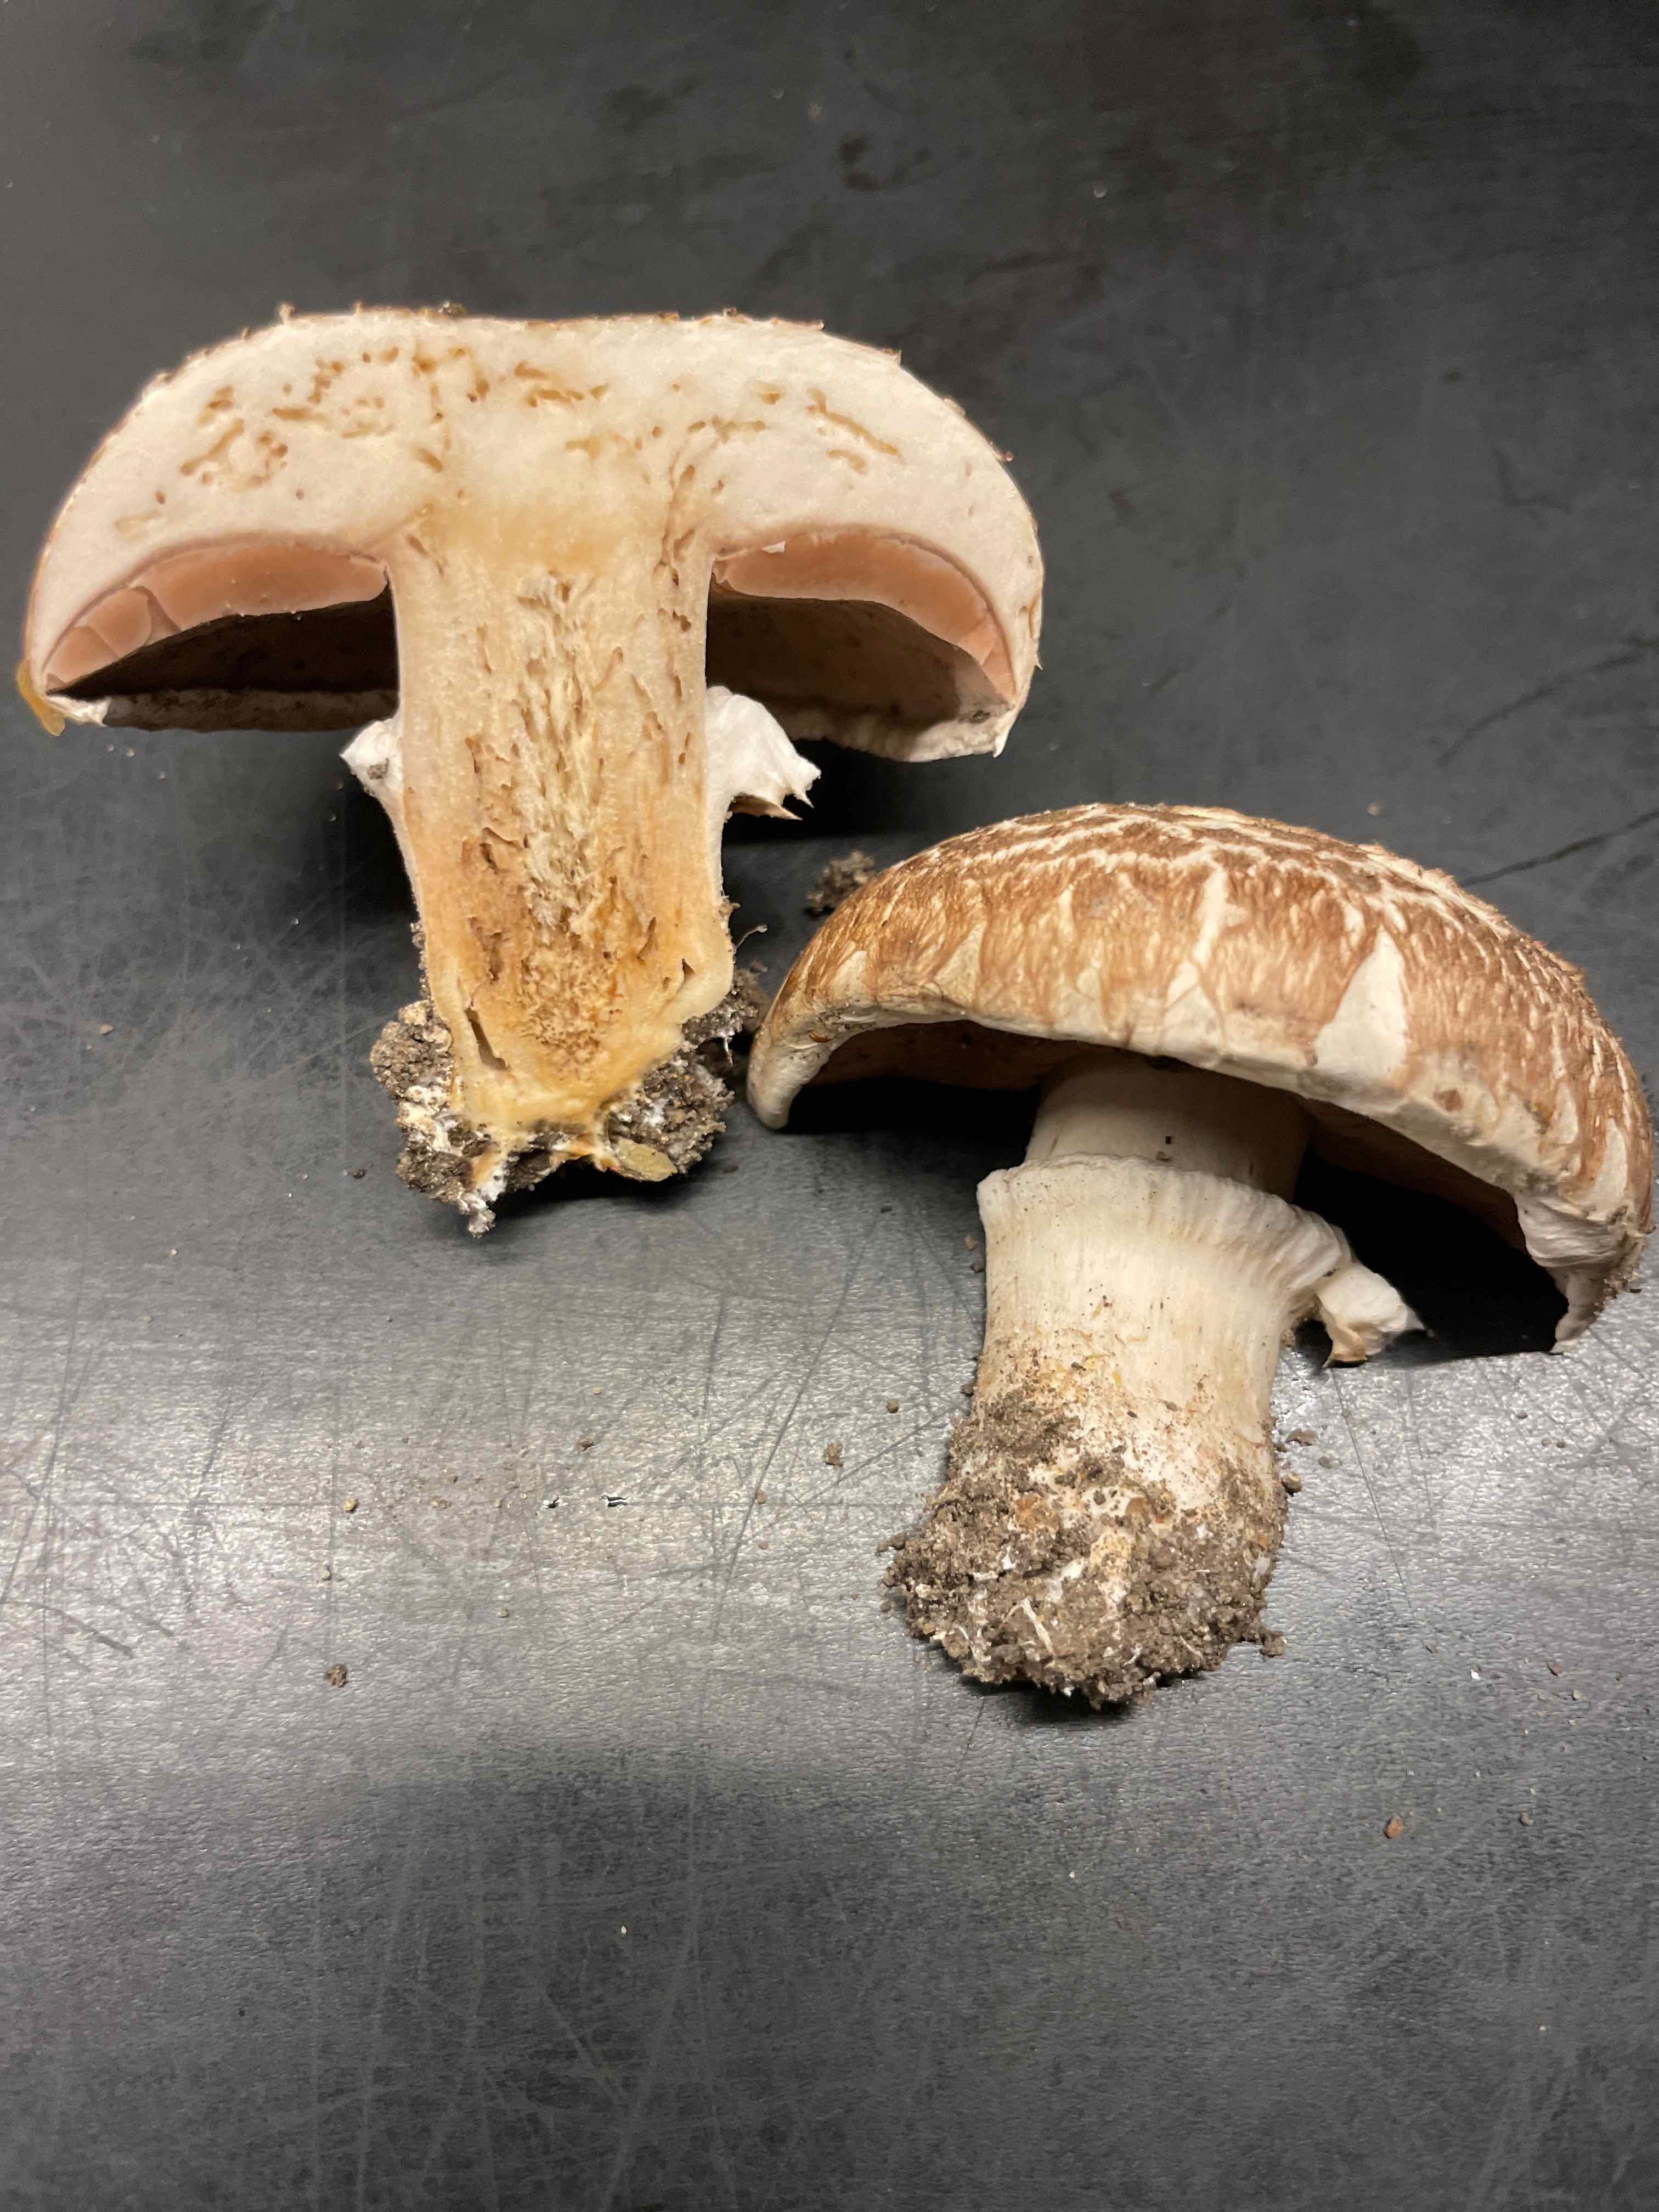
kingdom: Fungi
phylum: Basidiomycota
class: Agaricomycetes
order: Agaricales
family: Agaricaceae
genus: Agaricus
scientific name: Agaricus
